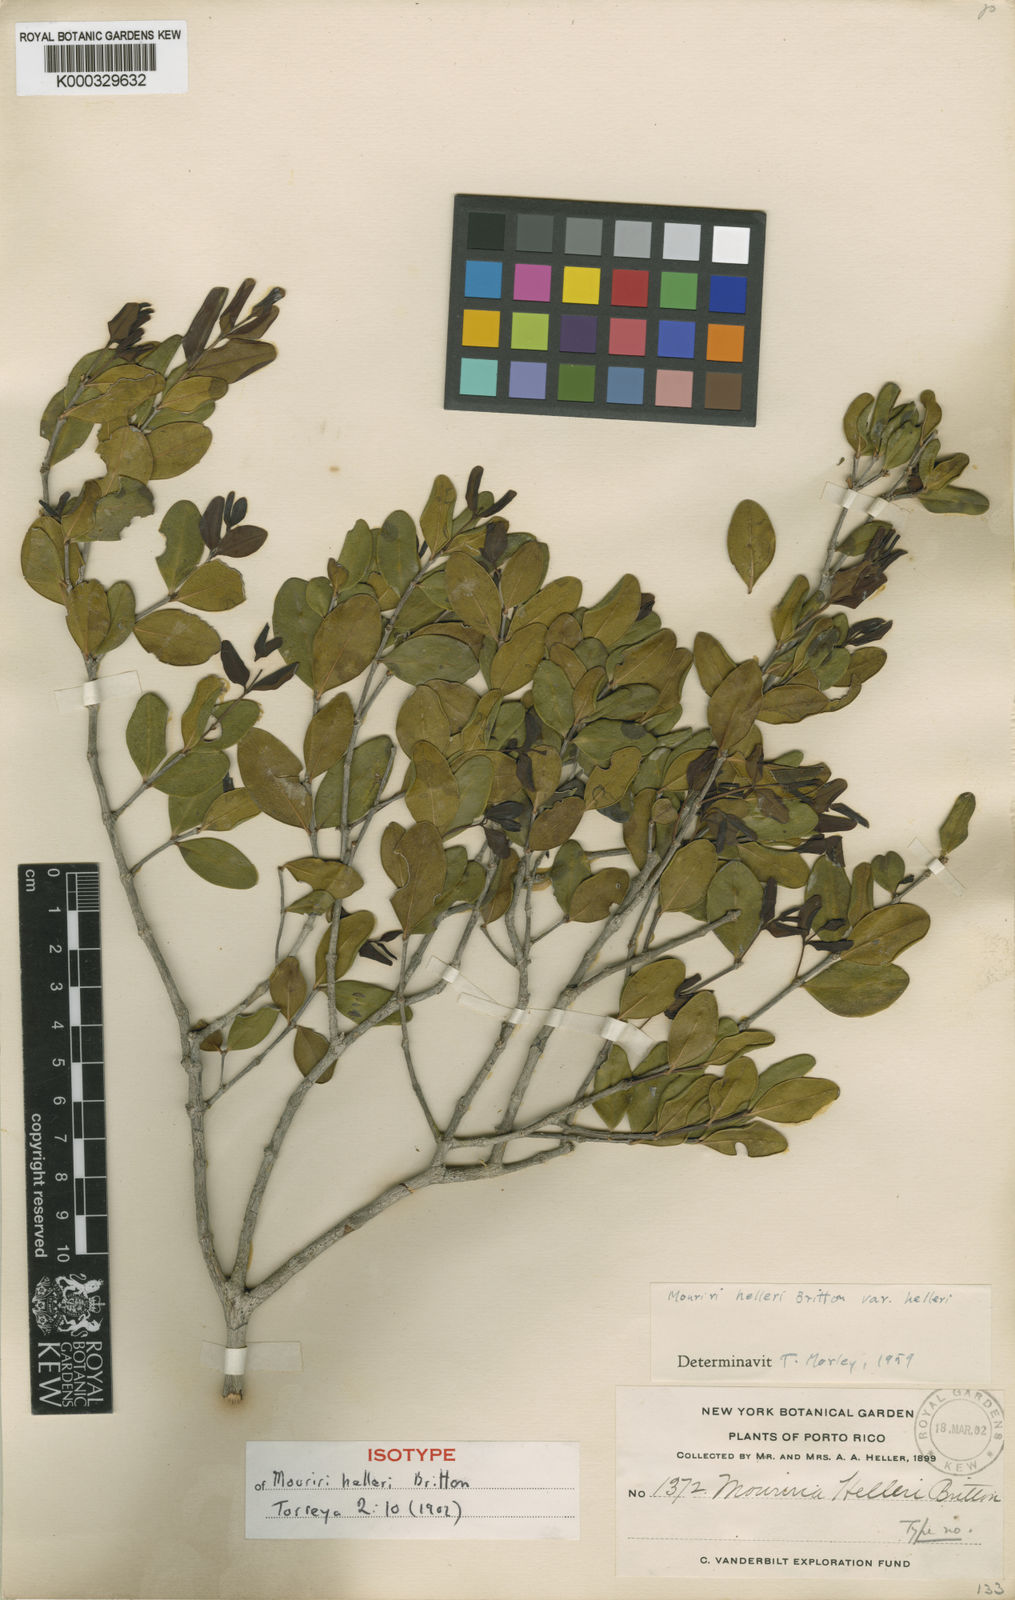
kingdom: Plantae
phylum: Tracheophyta
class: Magnoliopsida
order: Myrtales
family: Melastomataceae
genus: Mouriri
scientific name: Mouriri helleri
